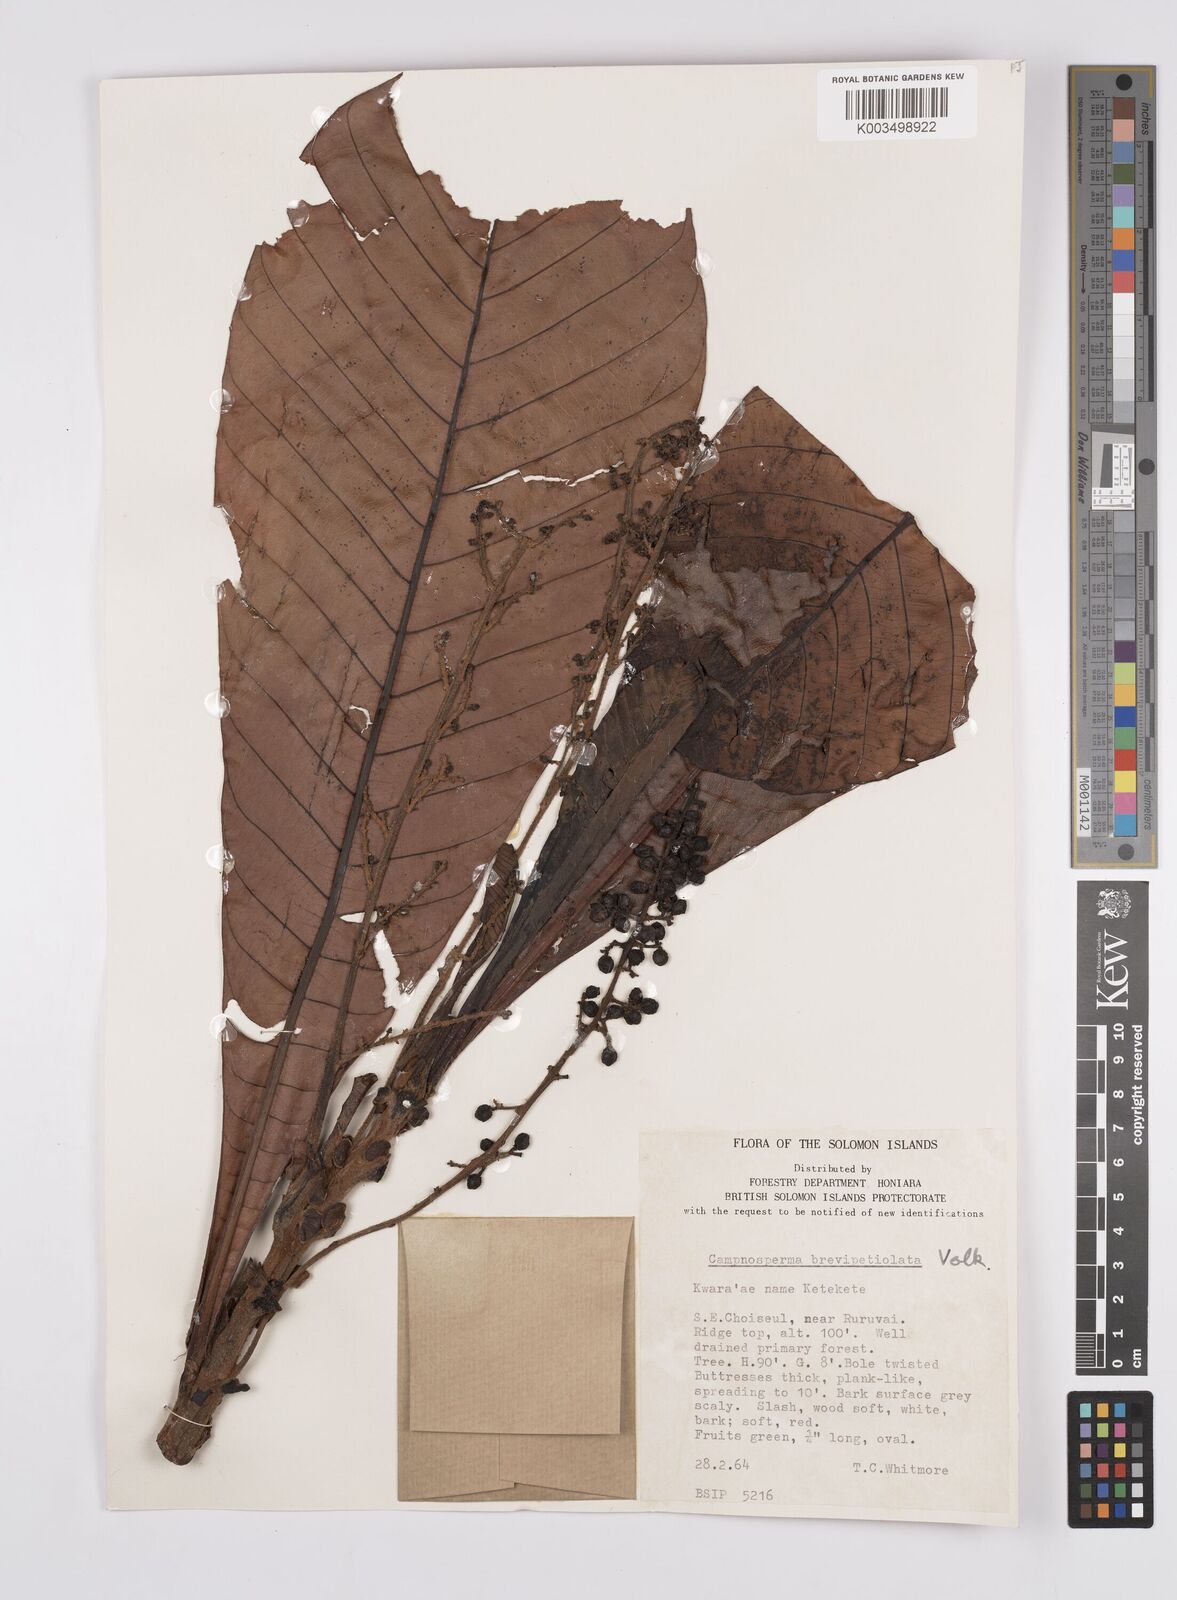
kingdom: Plantae
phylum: Tracheophyta
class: Magnoliopsida
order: Sapindales
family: Anacardiaceae
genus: Campnosperma
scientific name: Campnosperma brevipetiolatum
